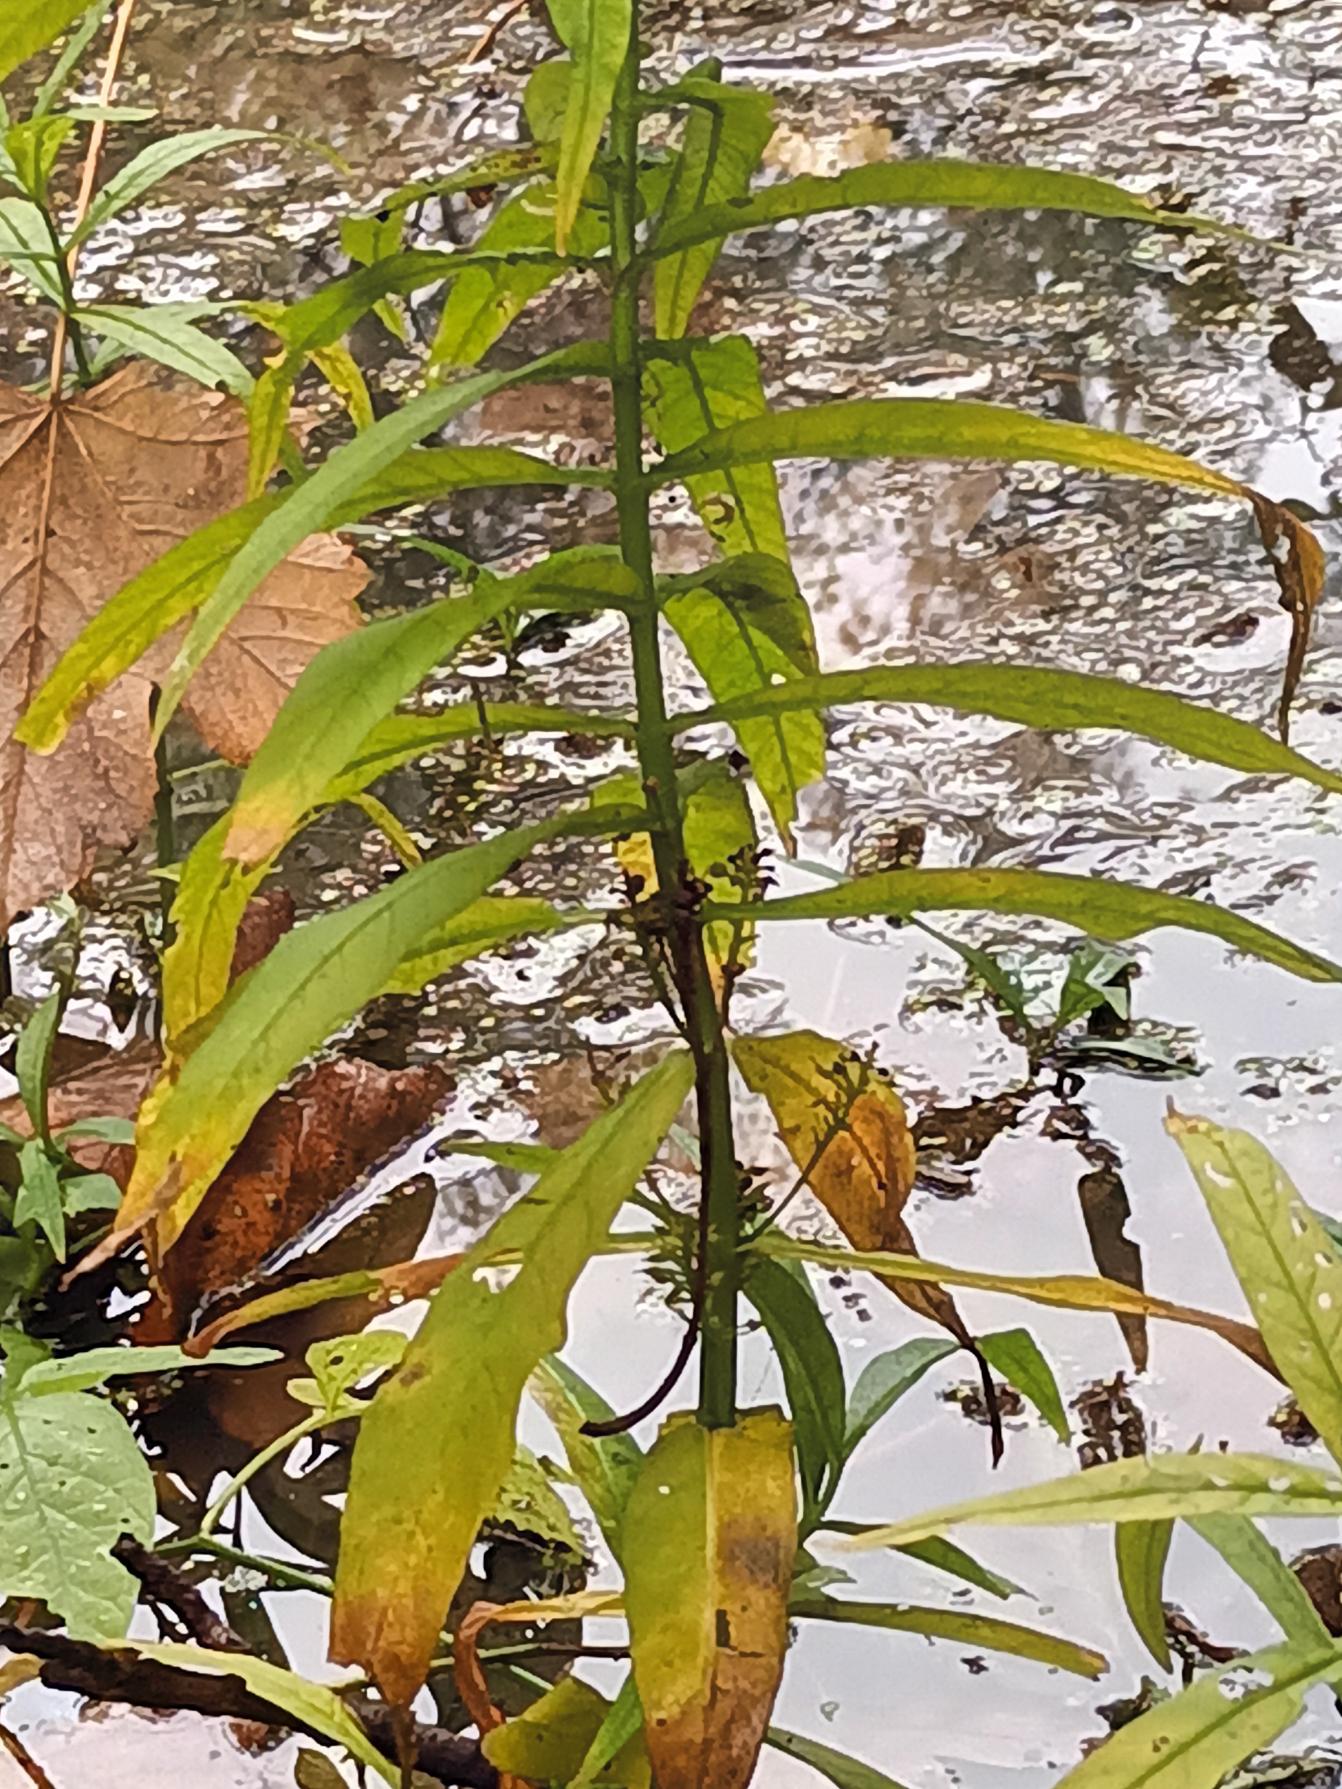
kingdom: Plantae
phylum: Tracheophyta
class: Magnoliopsida
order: Ericales
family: Primulaceae
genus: Lysimachia
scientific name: Lysimachia thyrsiflora
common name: Dusk-fredløs
